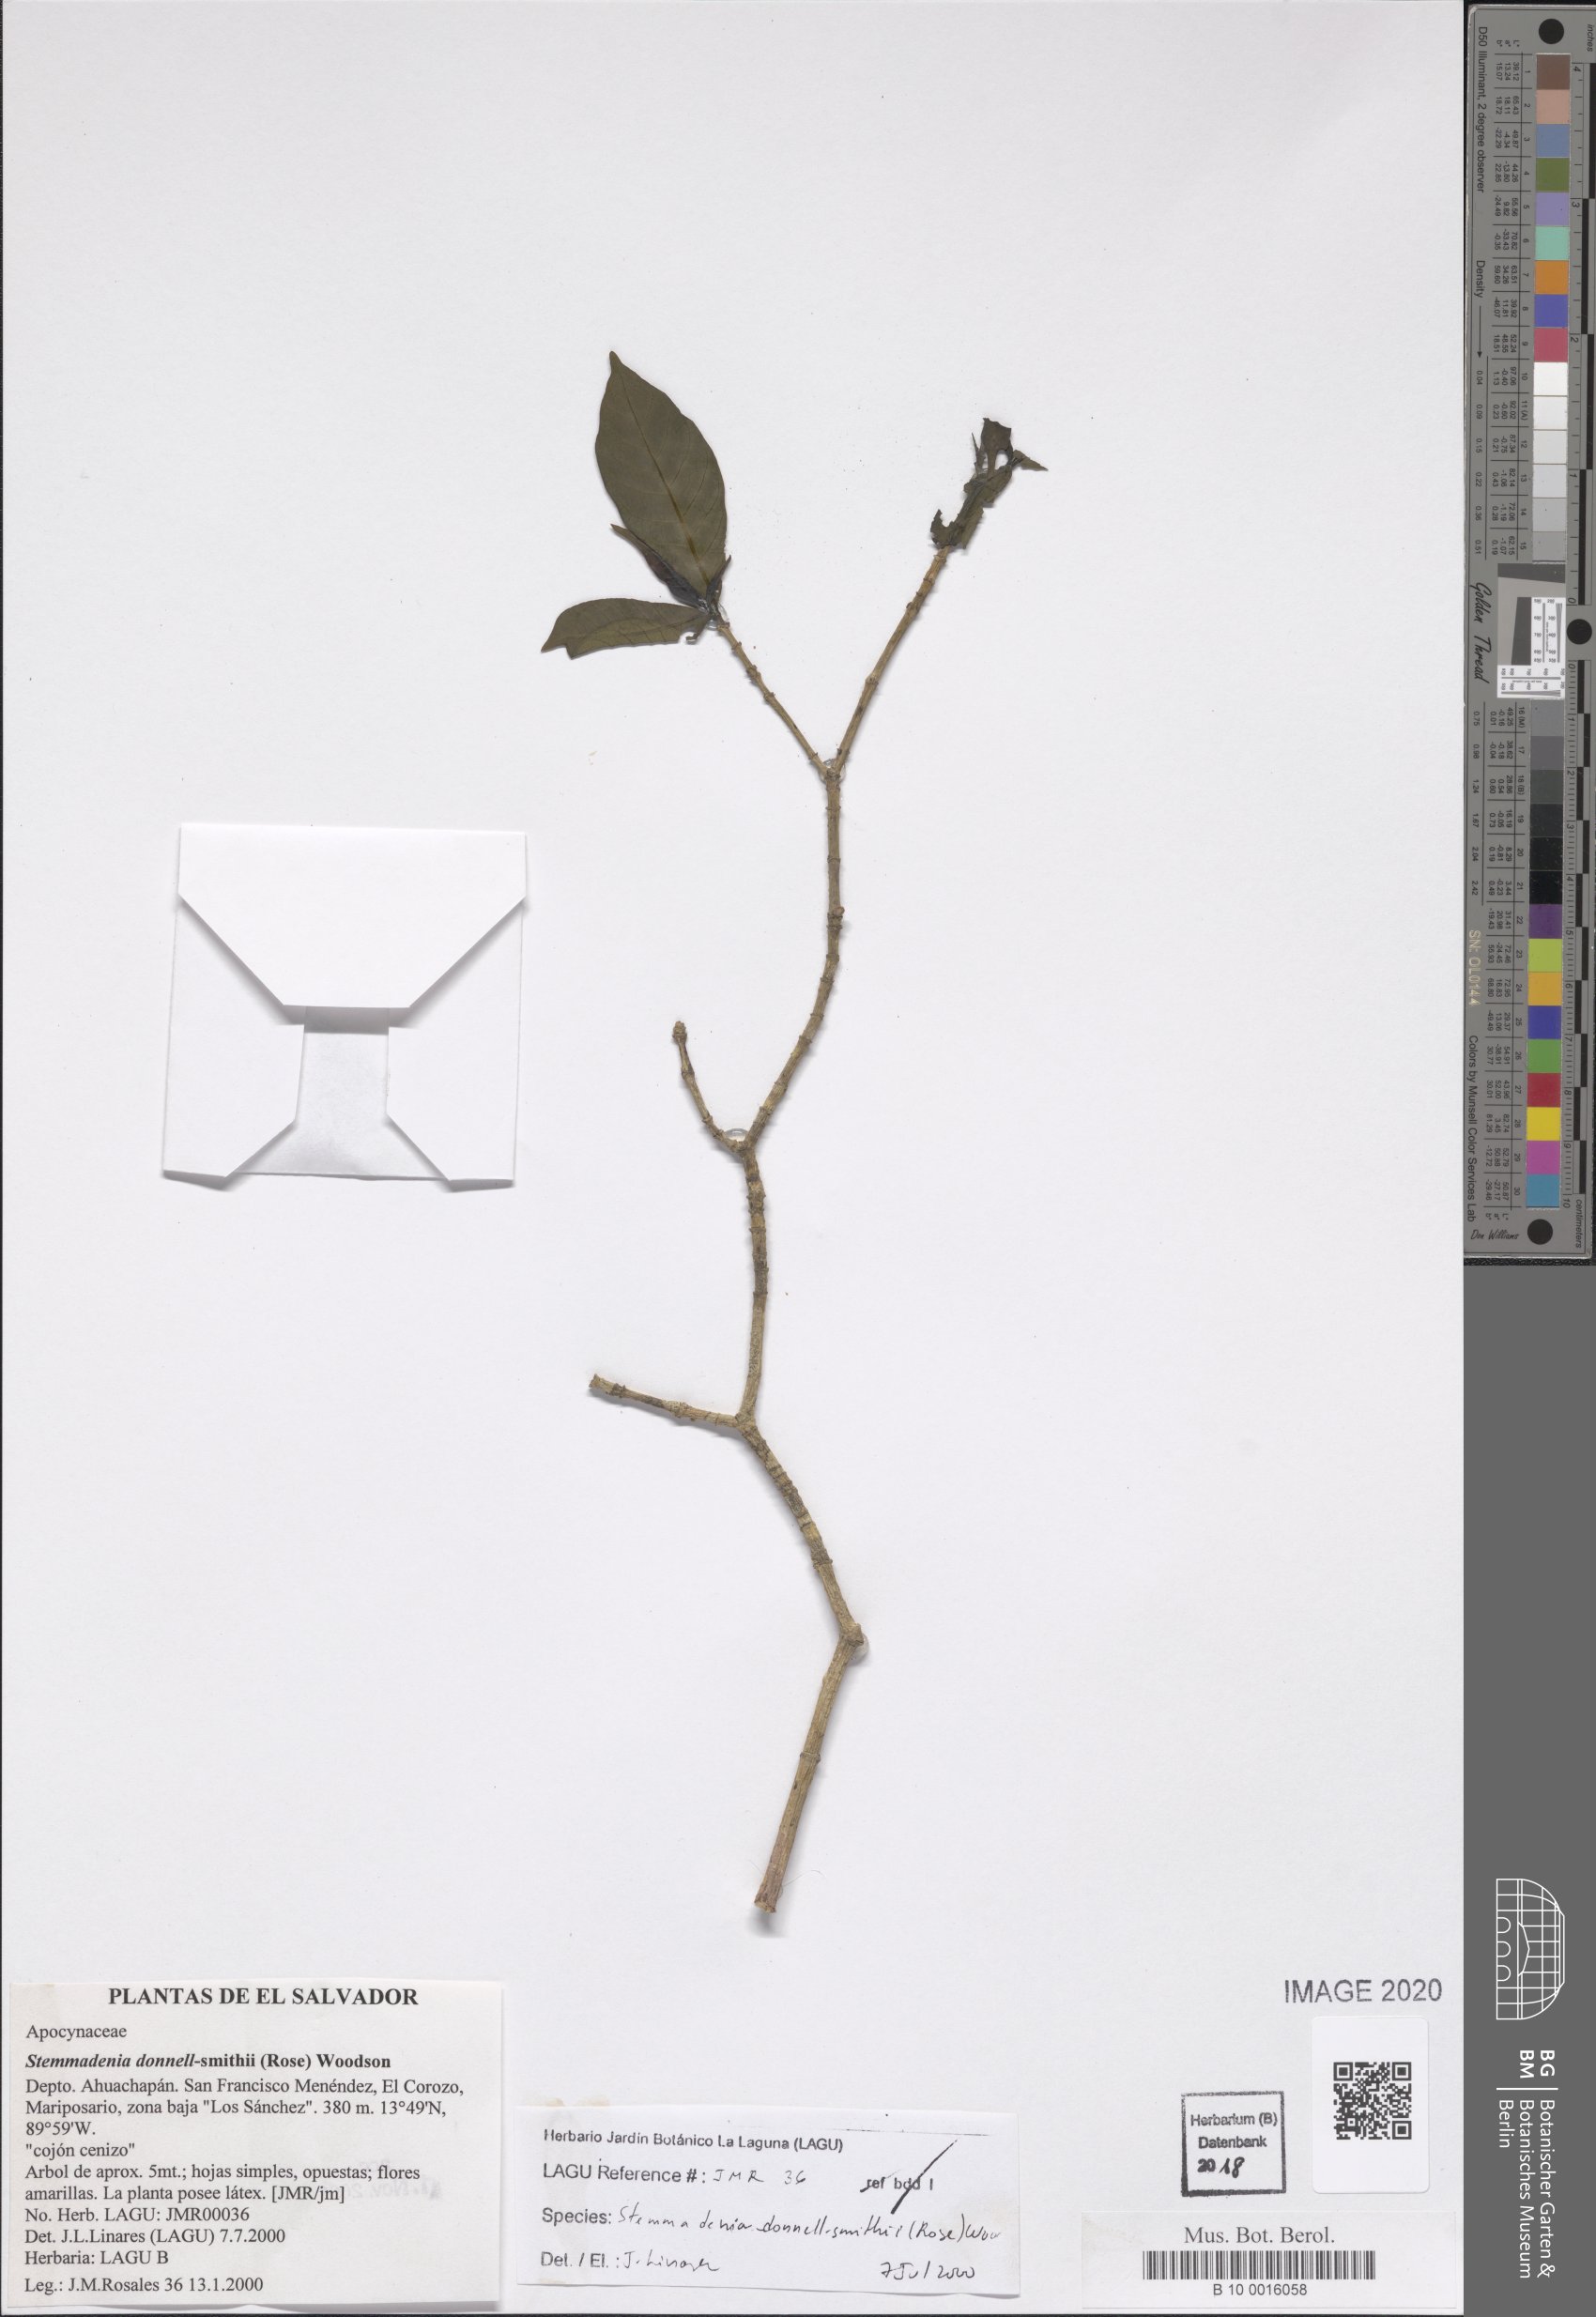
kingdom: Plantae
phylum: Tracheophyta
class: Magnoliopsida
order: Gentianales
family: Apocynaceae
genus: Tabernaemontana
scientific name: Tabernaemontana donnell-smithii
